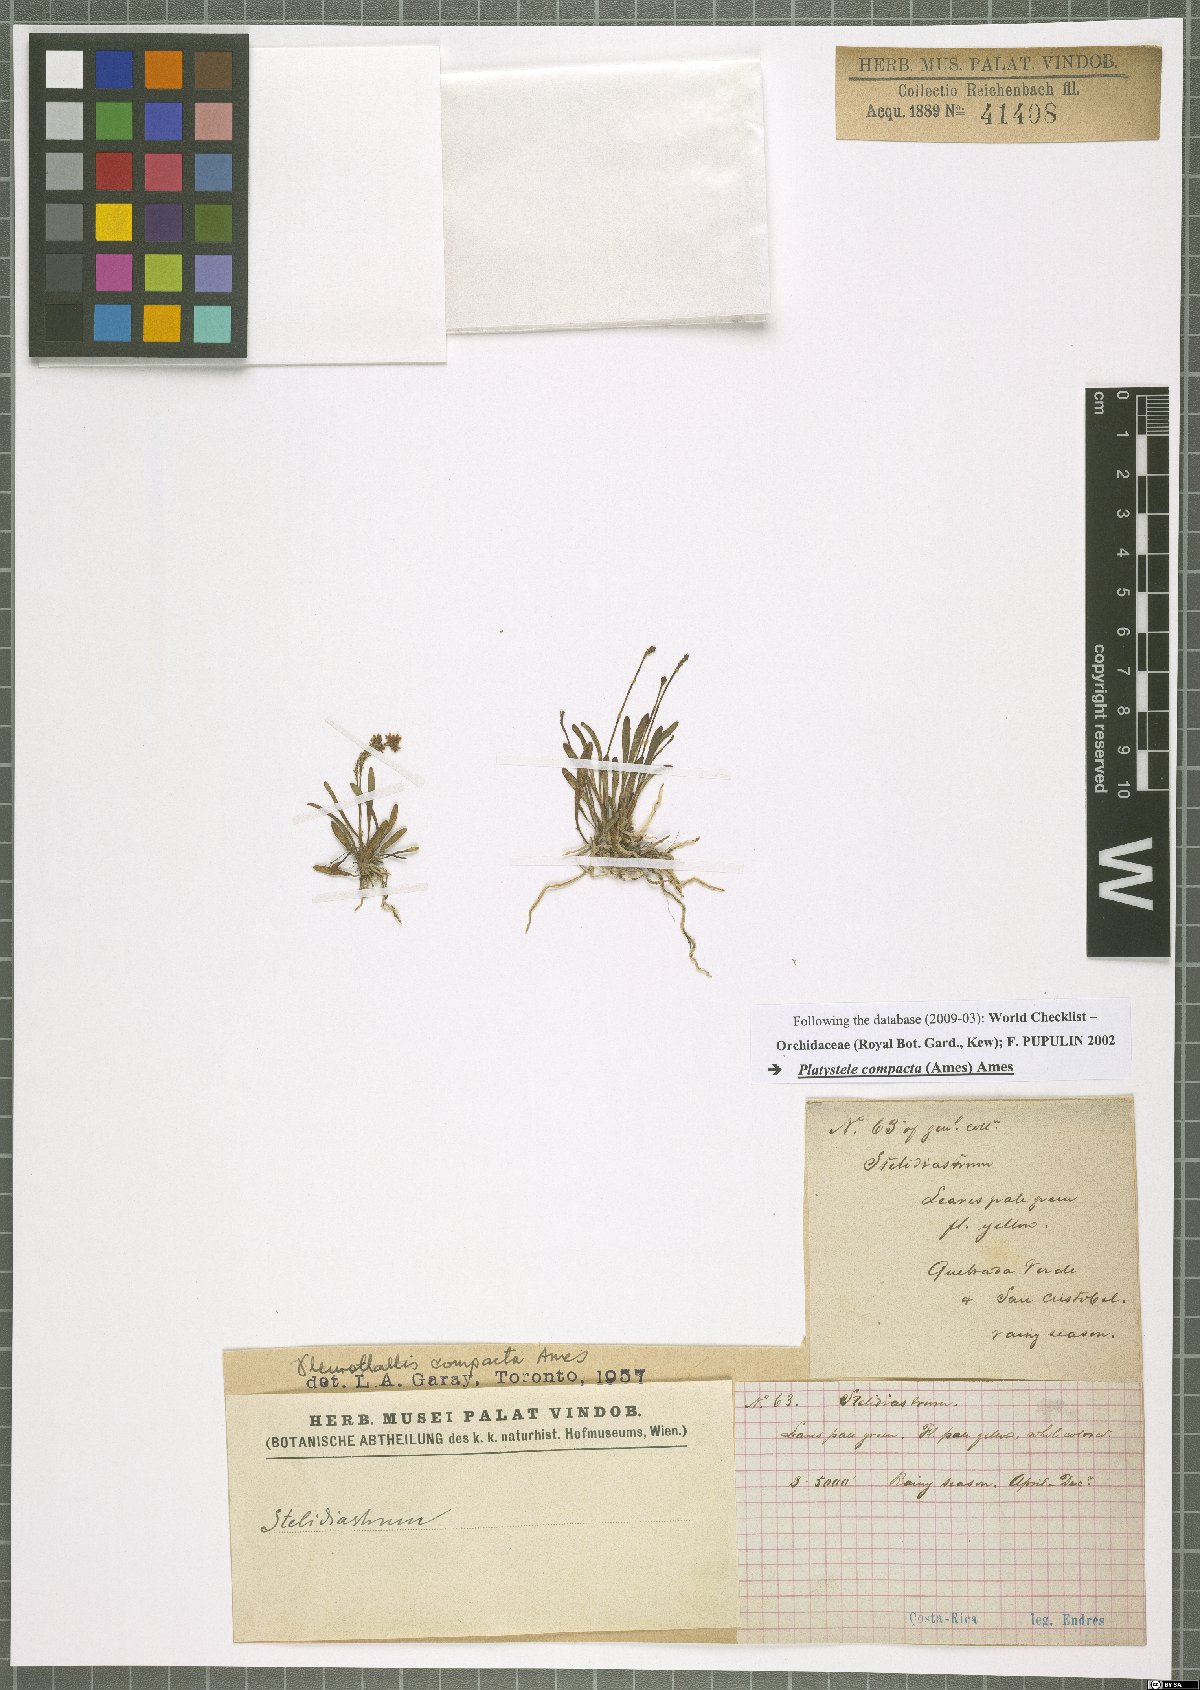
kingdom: Plantae
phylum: Tracheophyta
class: Liliopsida
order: Asparagales
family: Orchidaceae
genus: Platystele
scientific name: Platystele compacta
